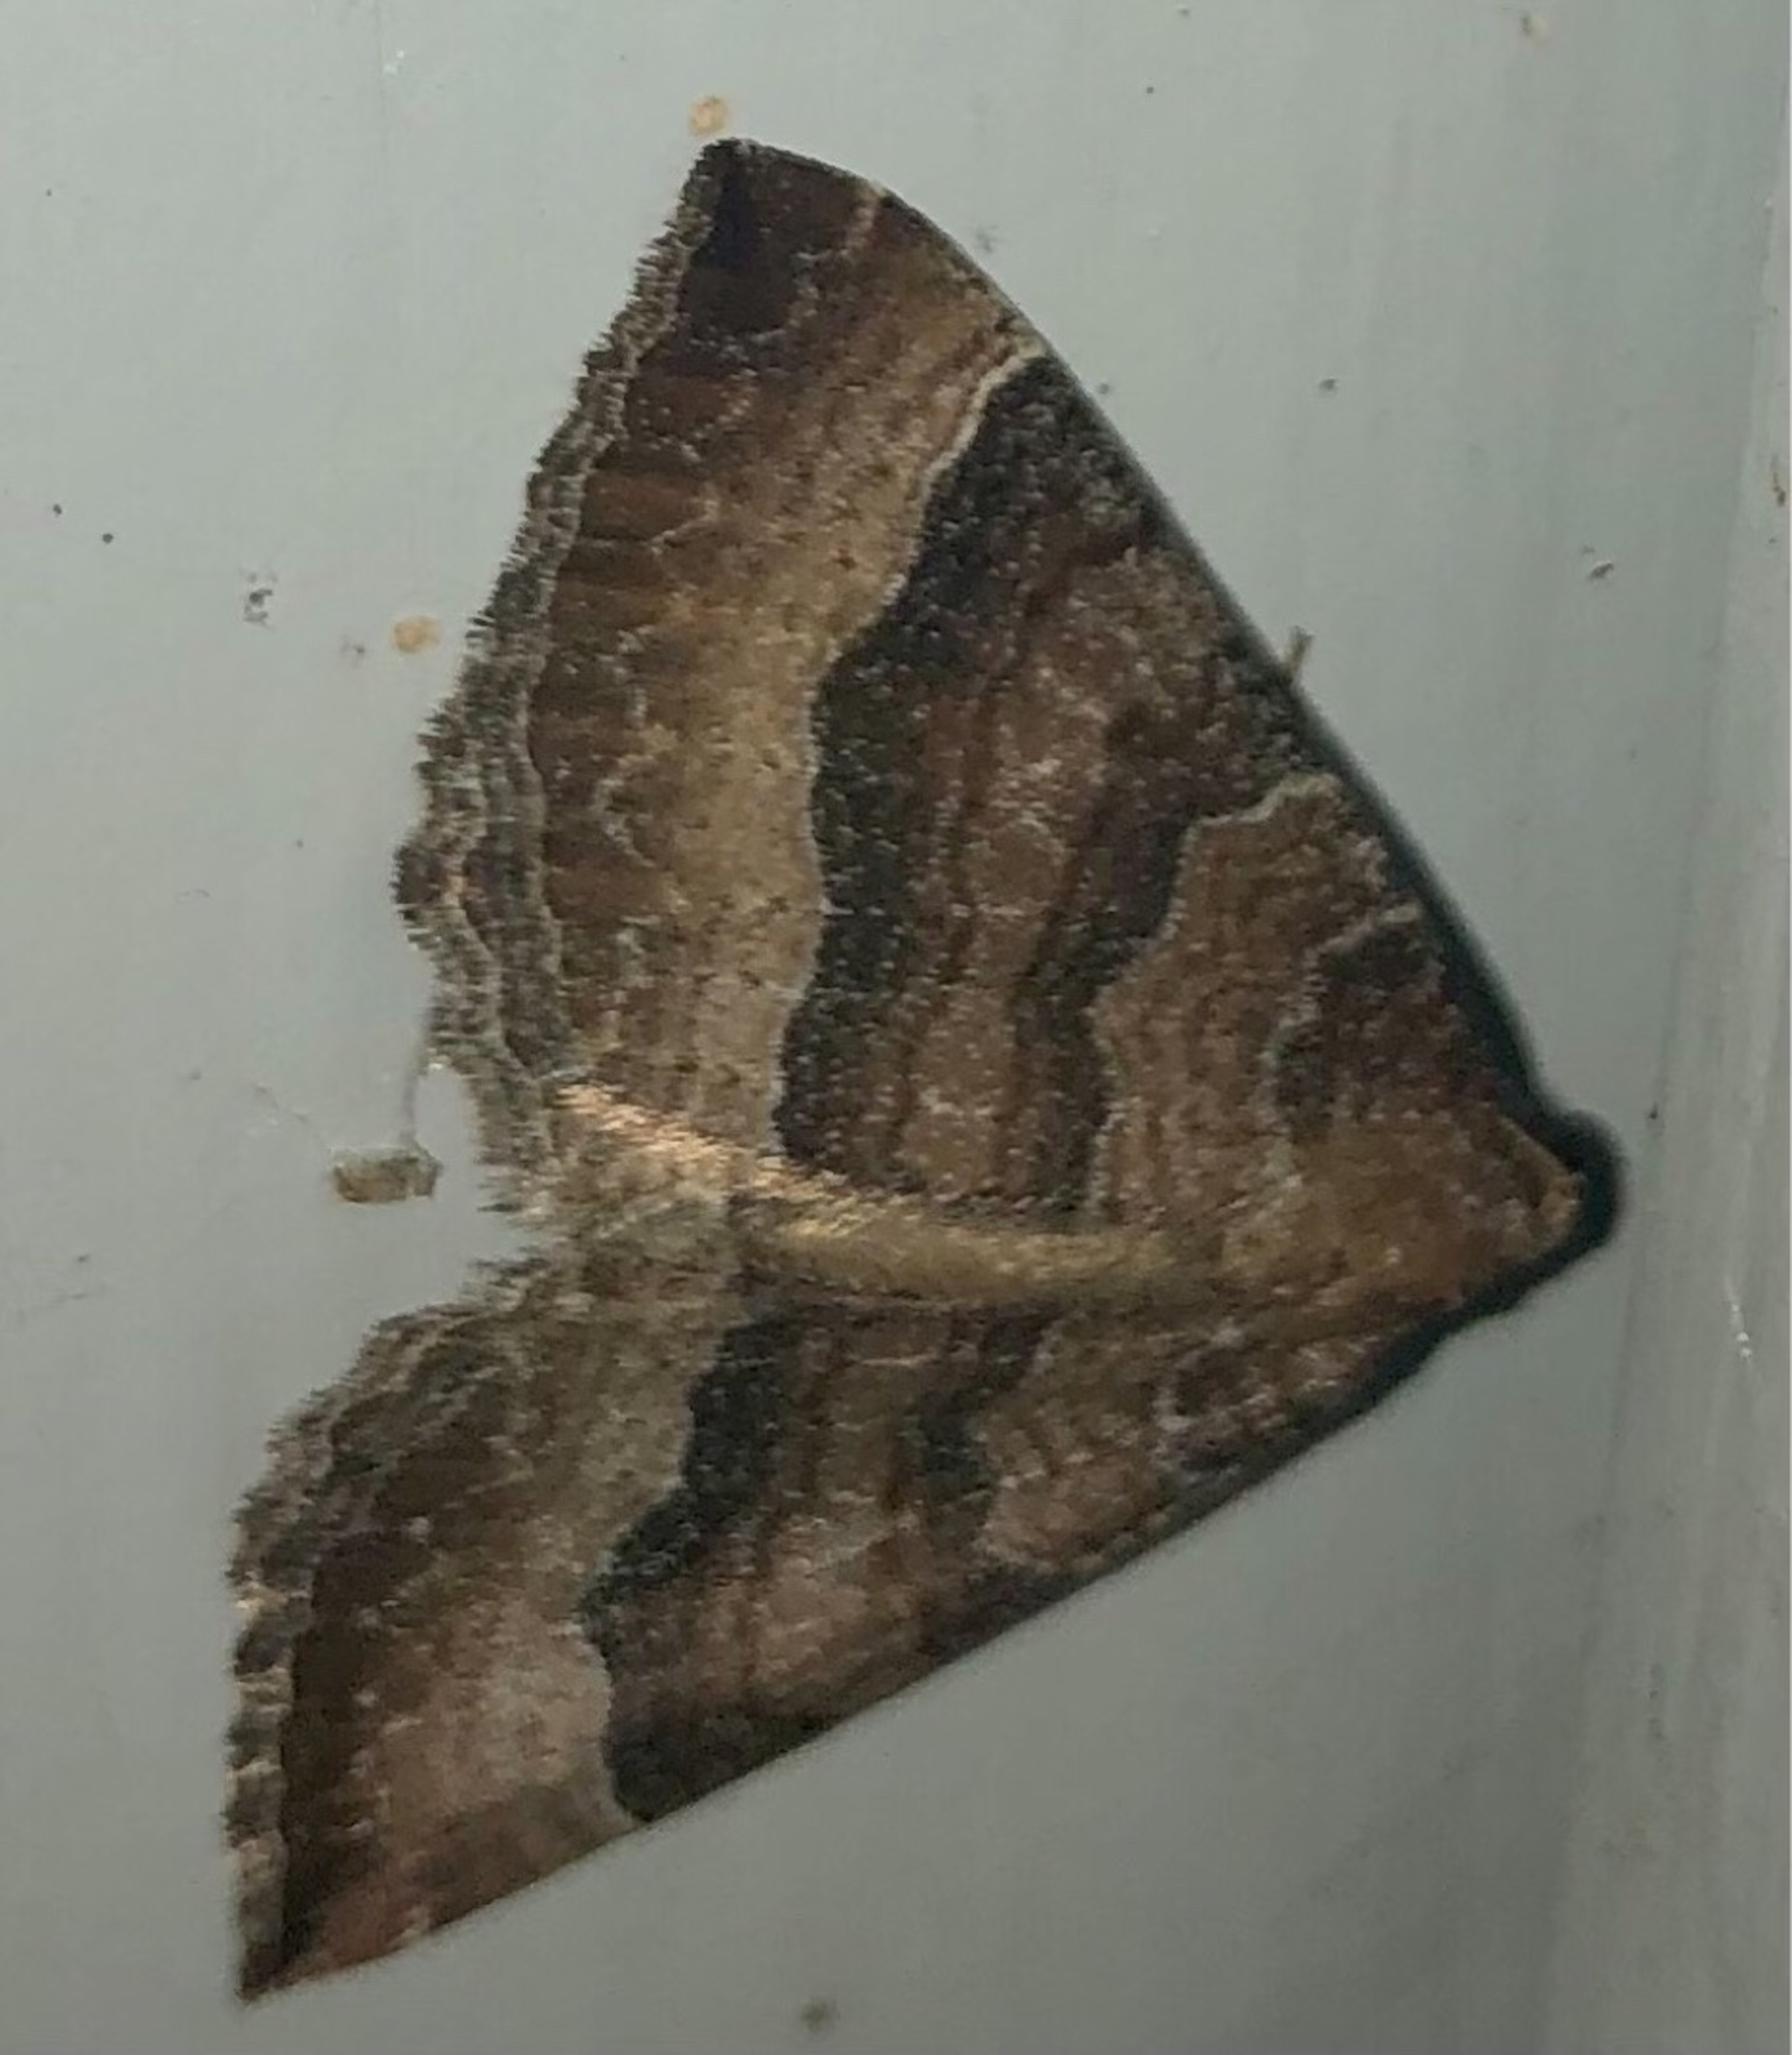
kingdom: Animalia
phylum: Arthropoda
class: Insecta
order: Lepidoptera
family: Geometridae
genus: Larentia
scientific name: Larentia clavaria
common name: Katostmåler
